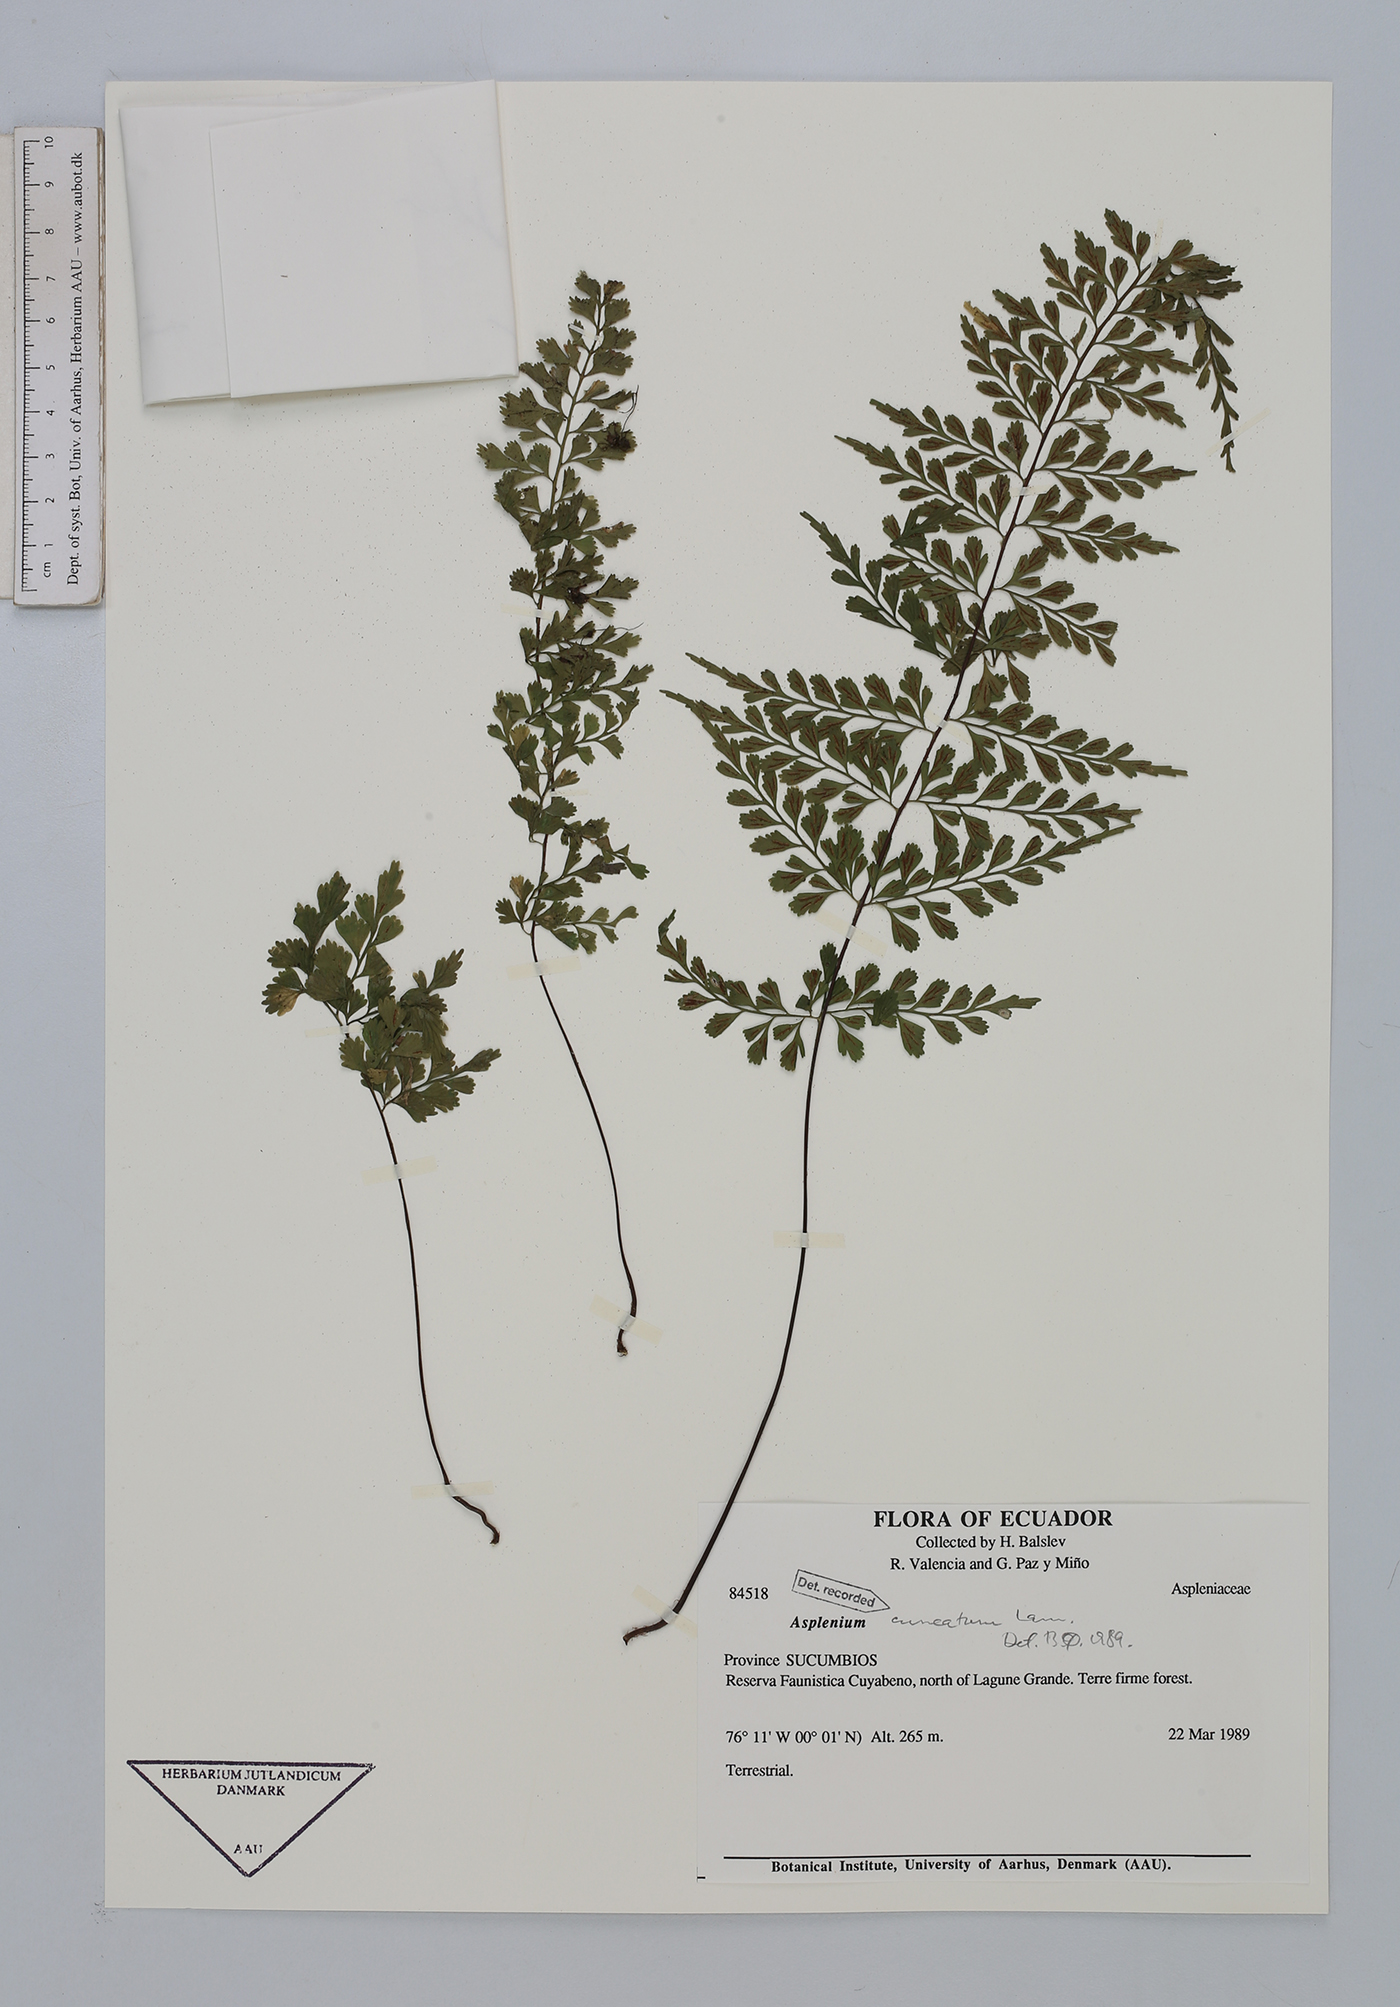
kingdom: Plantae
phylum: Tracheophyta
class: Polypodiopsida
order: Polypodiales
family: Aspleniaceae
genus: Asplenium
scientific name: Asplenium cuneatum
